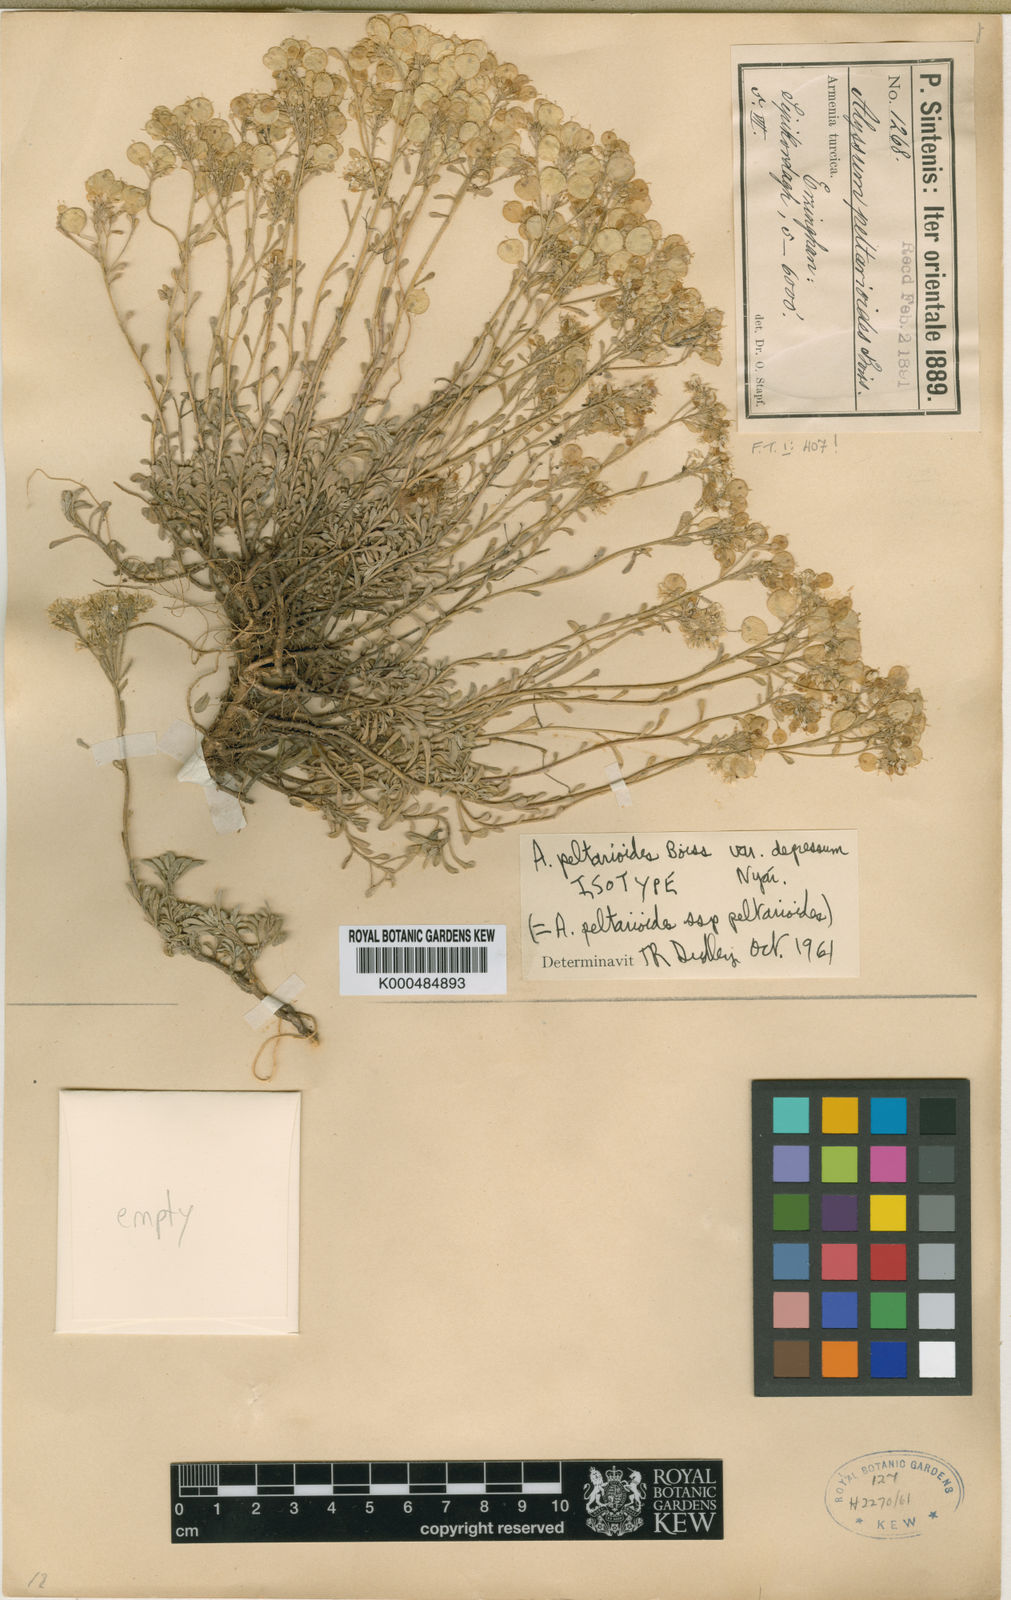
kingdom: Plantae
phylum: Tracheophyta
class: Magnoliopsida
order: Brassicales
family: Brassicaceae
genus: Odontarrhena
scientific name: Odontarrhena peltarioidea
